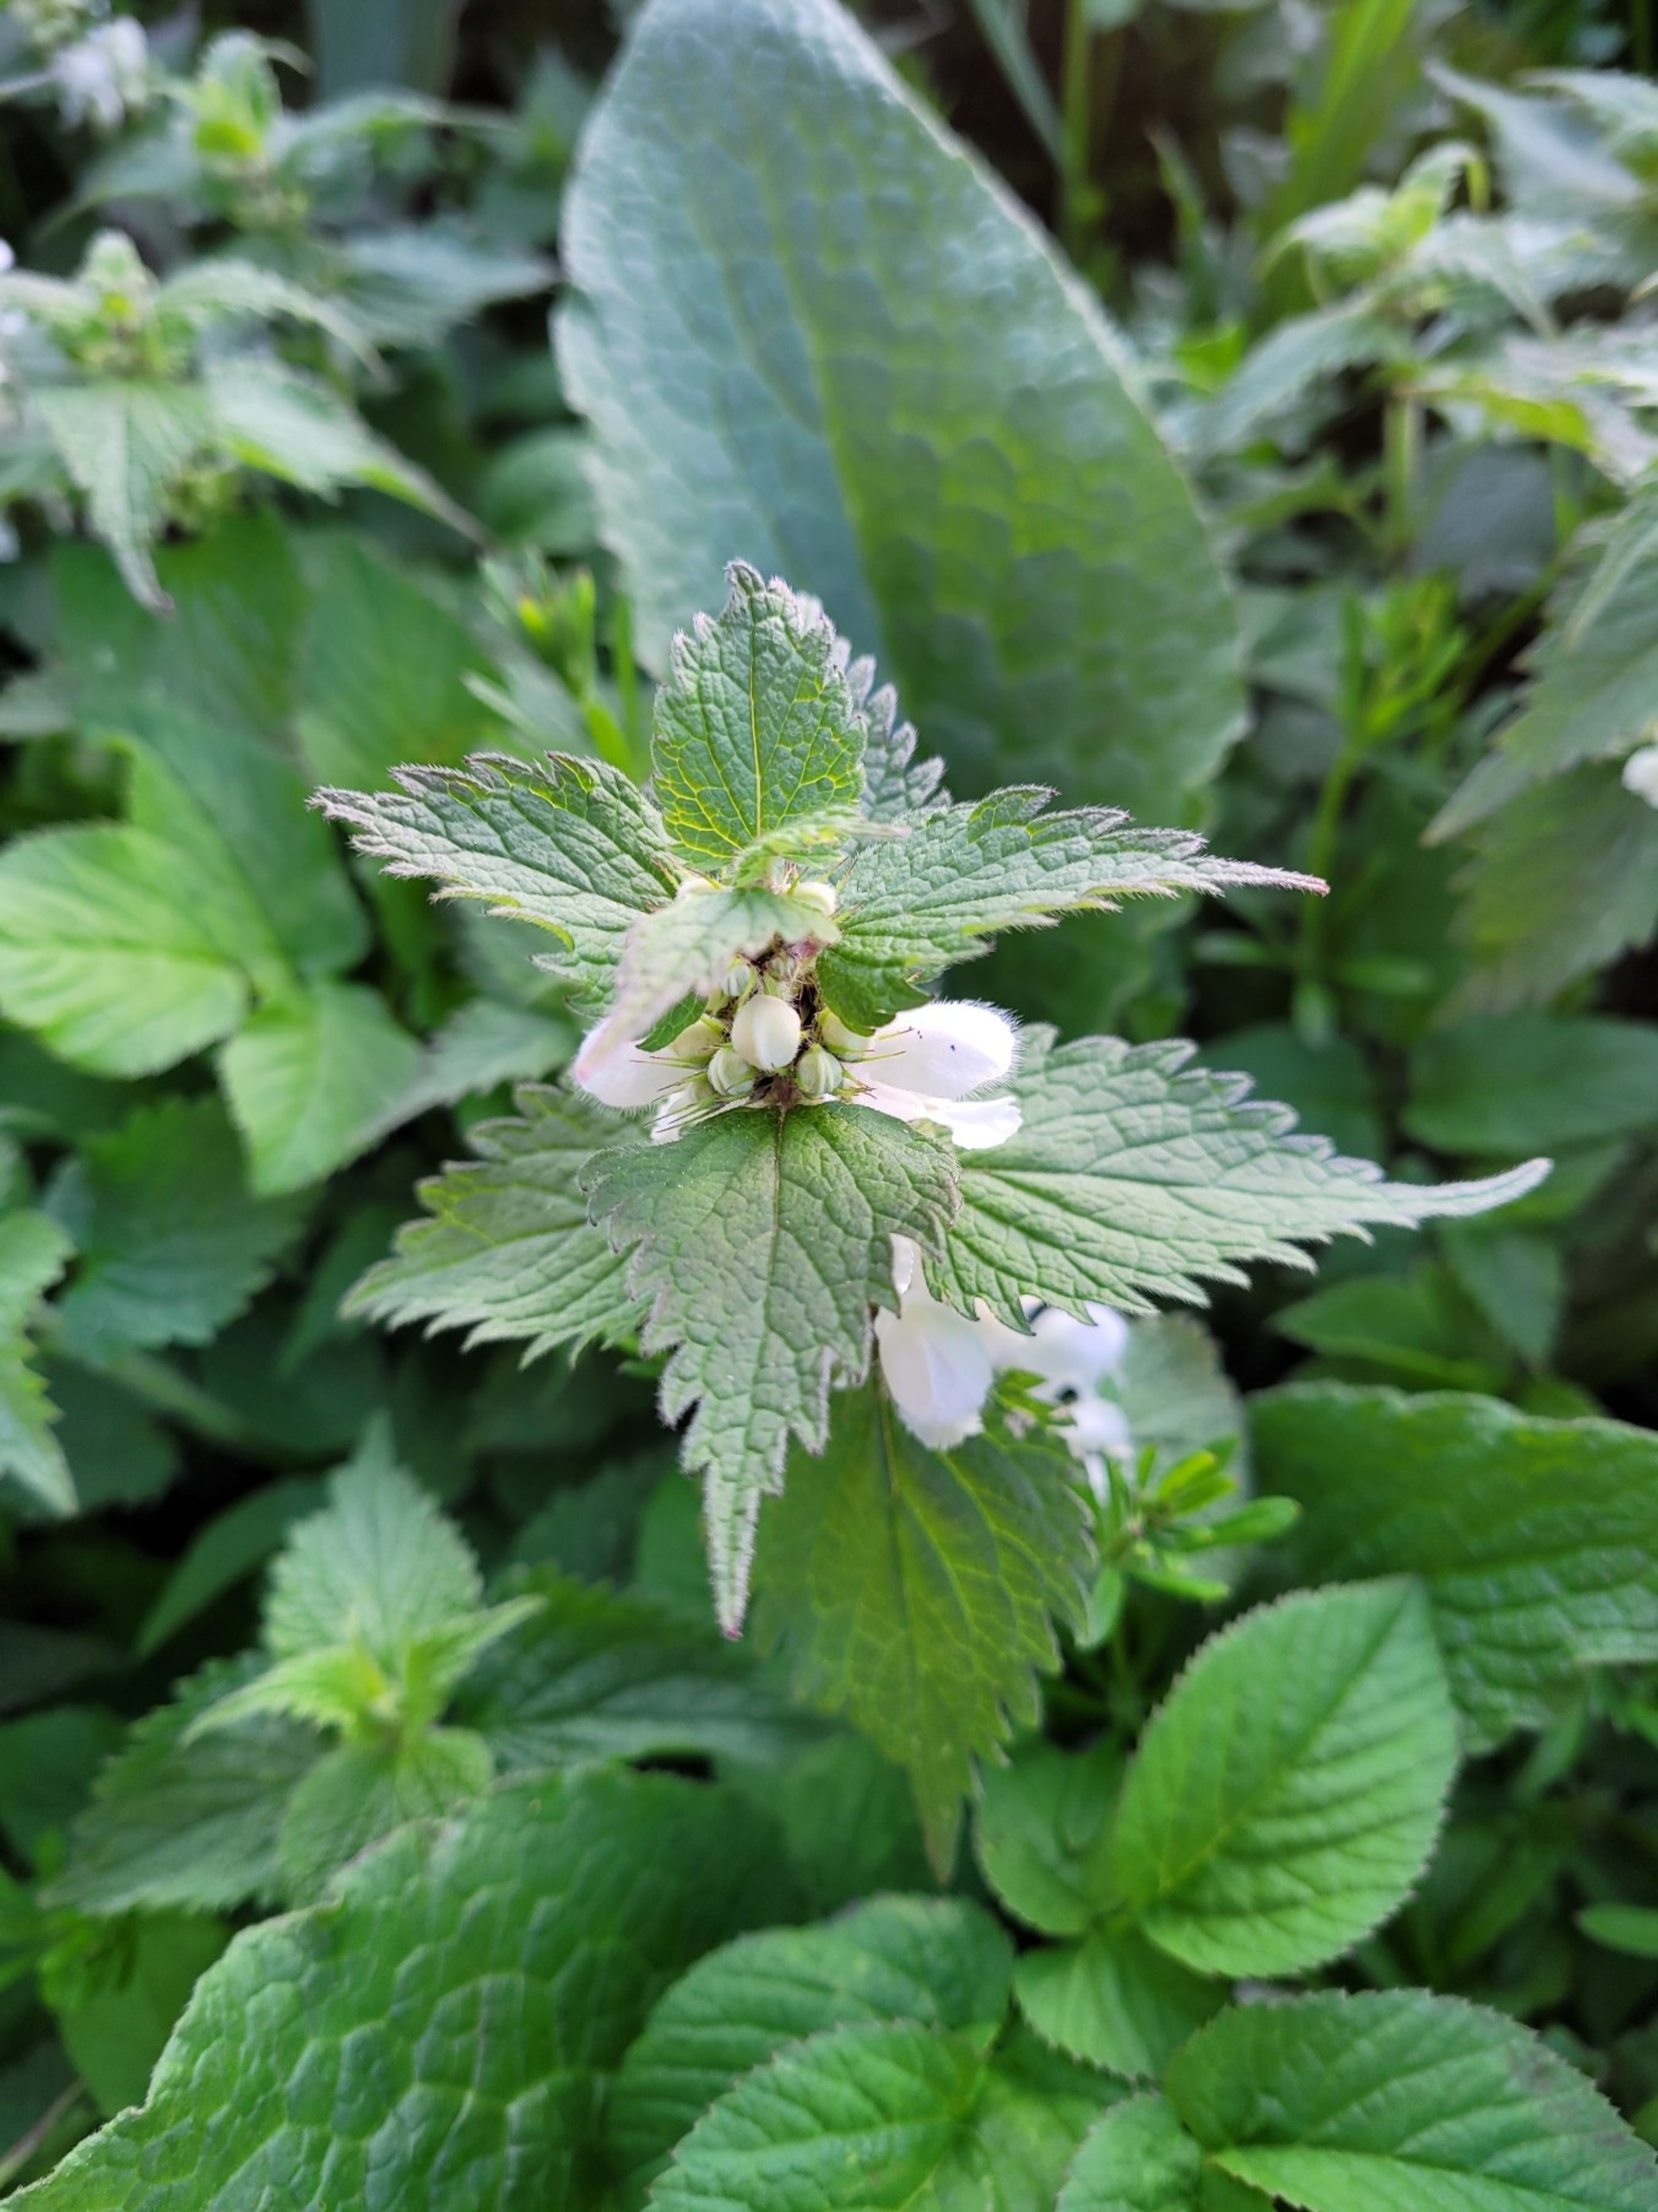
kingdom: Plantae
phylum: Tracheophyta
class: Magnoliopsida
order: Lamiales
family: Lamiaceae
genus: Lamium
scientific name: Lamium album
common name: Døvnælde
